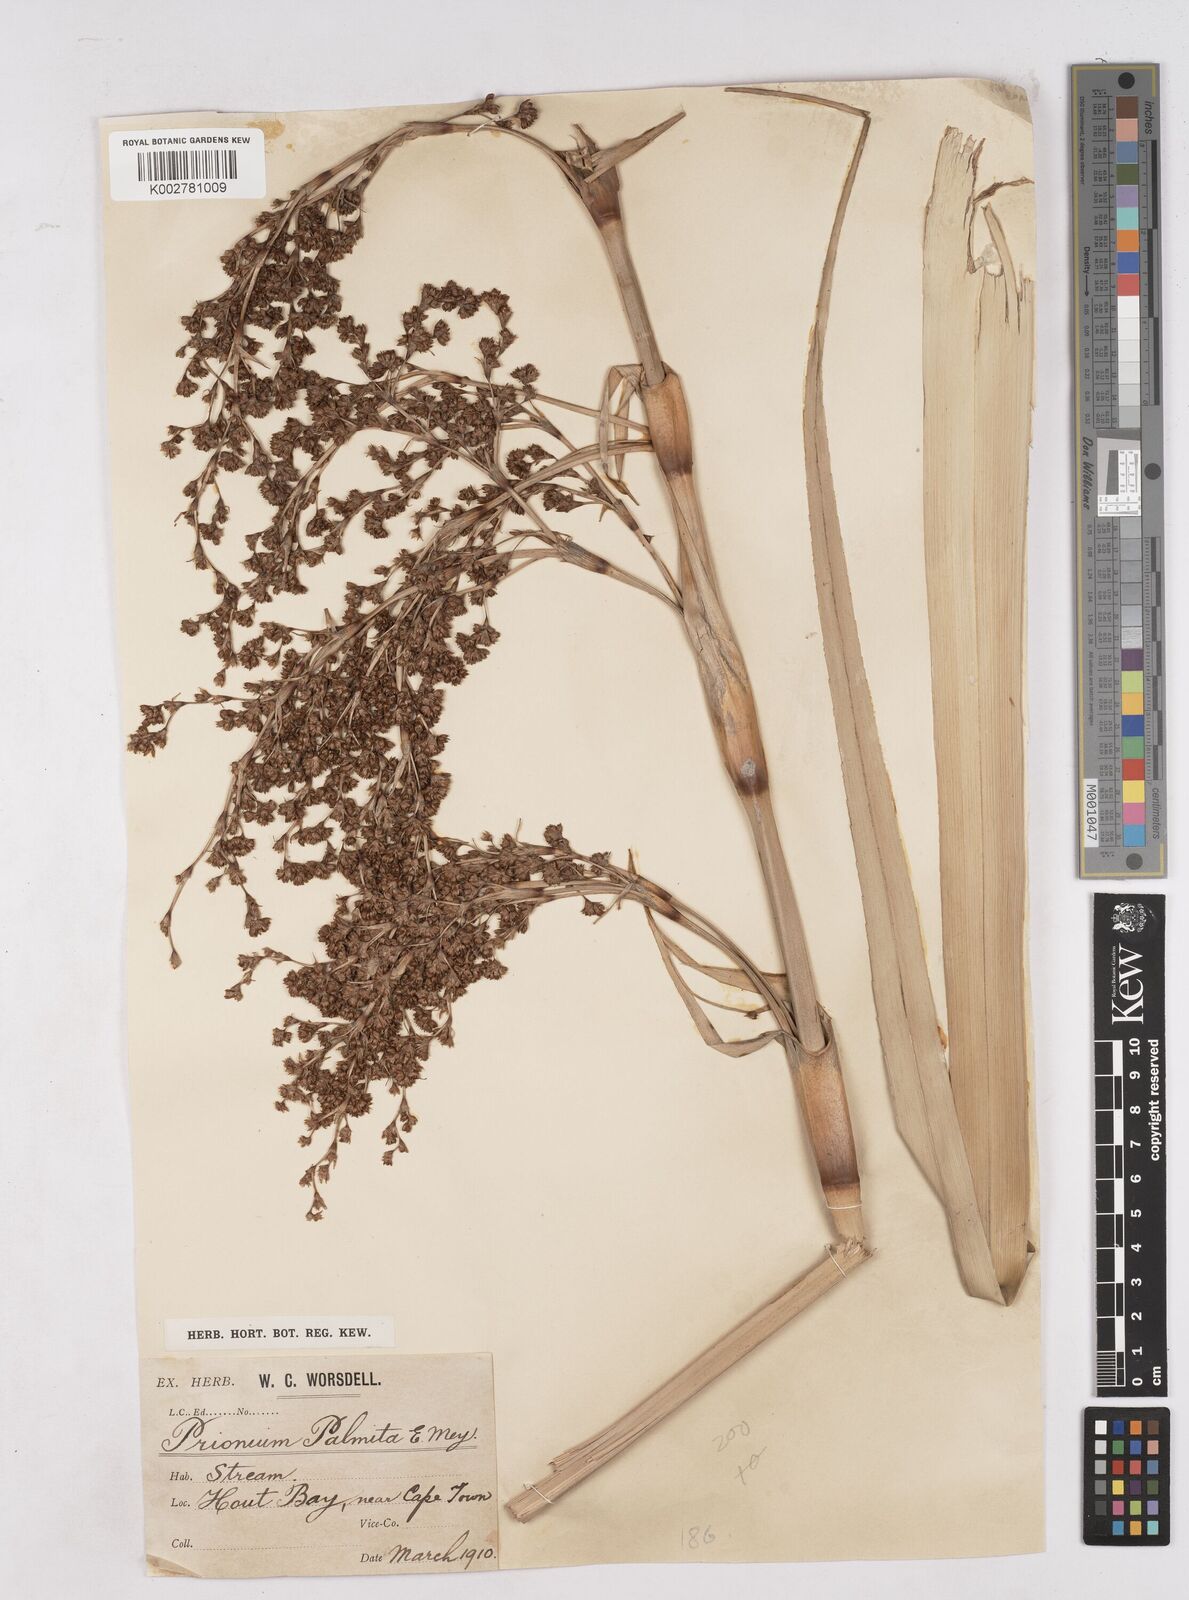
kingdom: Plantae
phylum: Tracheophyta
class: Liliopsida
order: Poales
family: Thurniaceae
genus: Prionium
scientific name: Prionium serratum
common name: Palmiet
